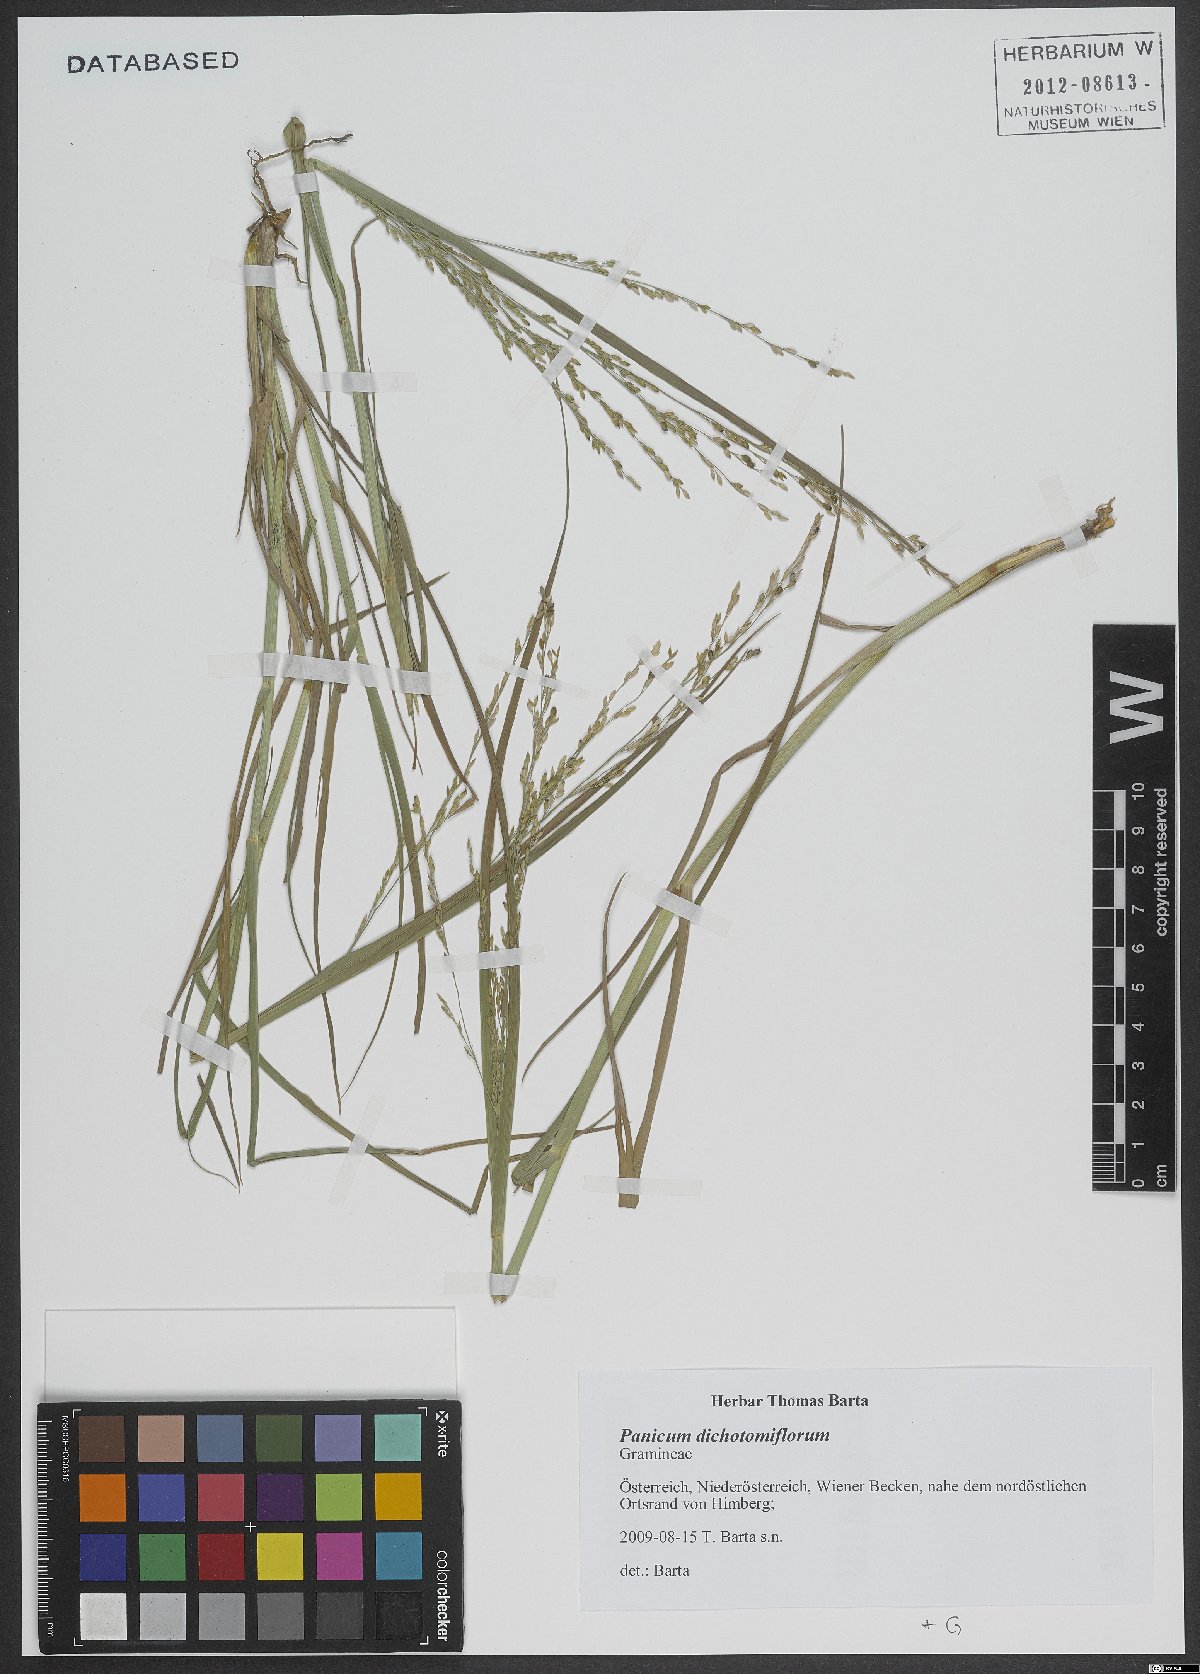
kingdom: Plantae
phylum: Tracheophyta
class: Liliopsida
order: Poales
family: Poaceae
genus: Panicum
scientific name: Panicum dichotomiflorum
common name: Autumn millet
